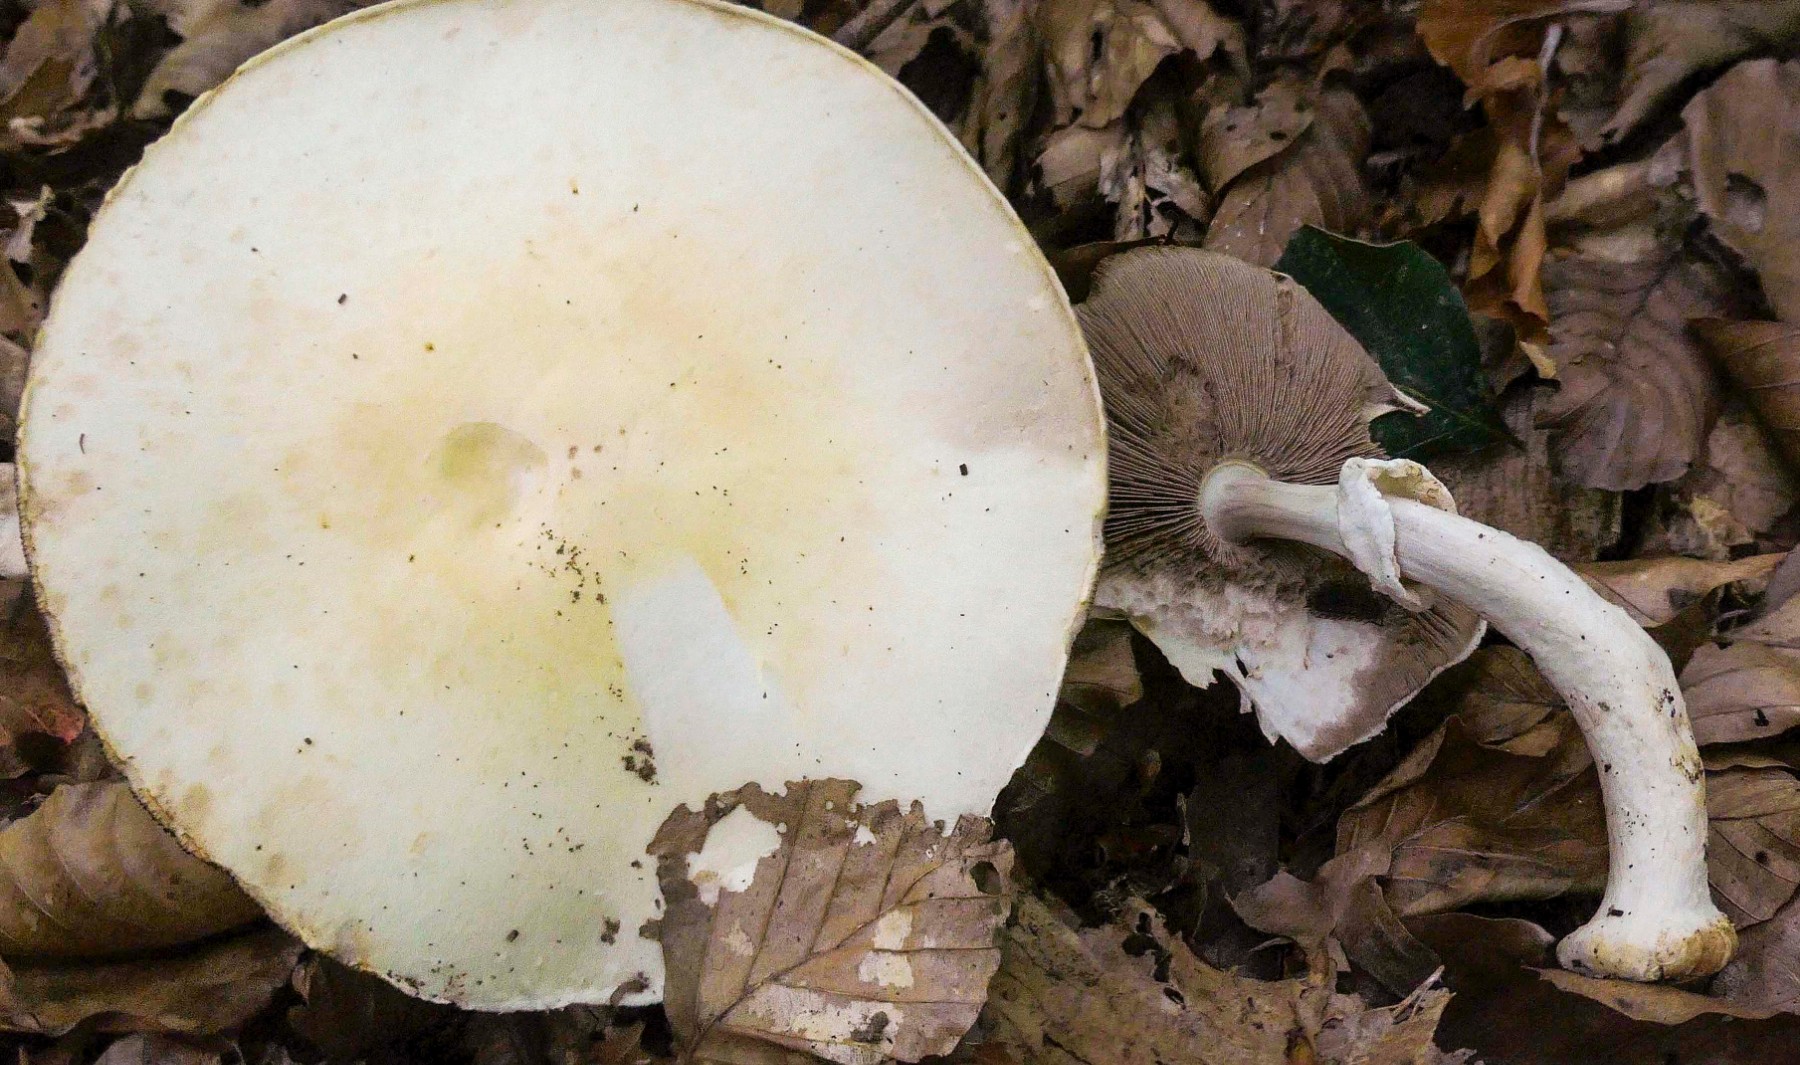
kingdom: Fungi
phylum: Basidiomycota
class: Agaricomycetes
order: Agaricales
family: Agaricaceae
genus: Agaricus
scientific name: Agaricus sylvicola
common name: skiveknoldet champignon
